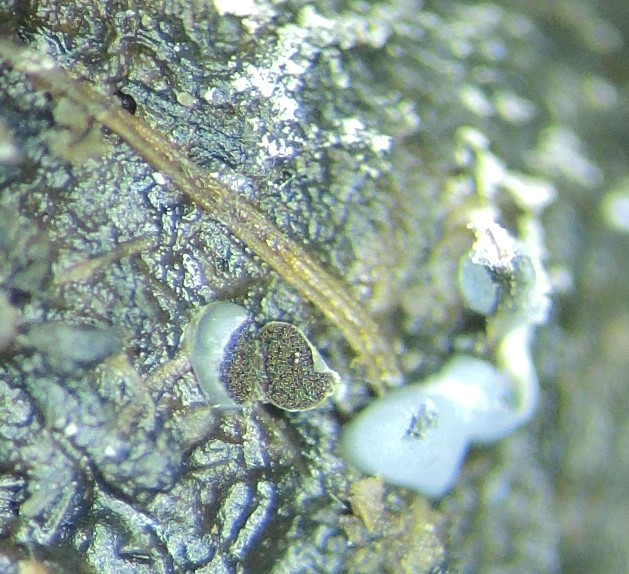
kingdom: Protozoa
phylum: Mycetozoa
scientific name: Mycetozoa
